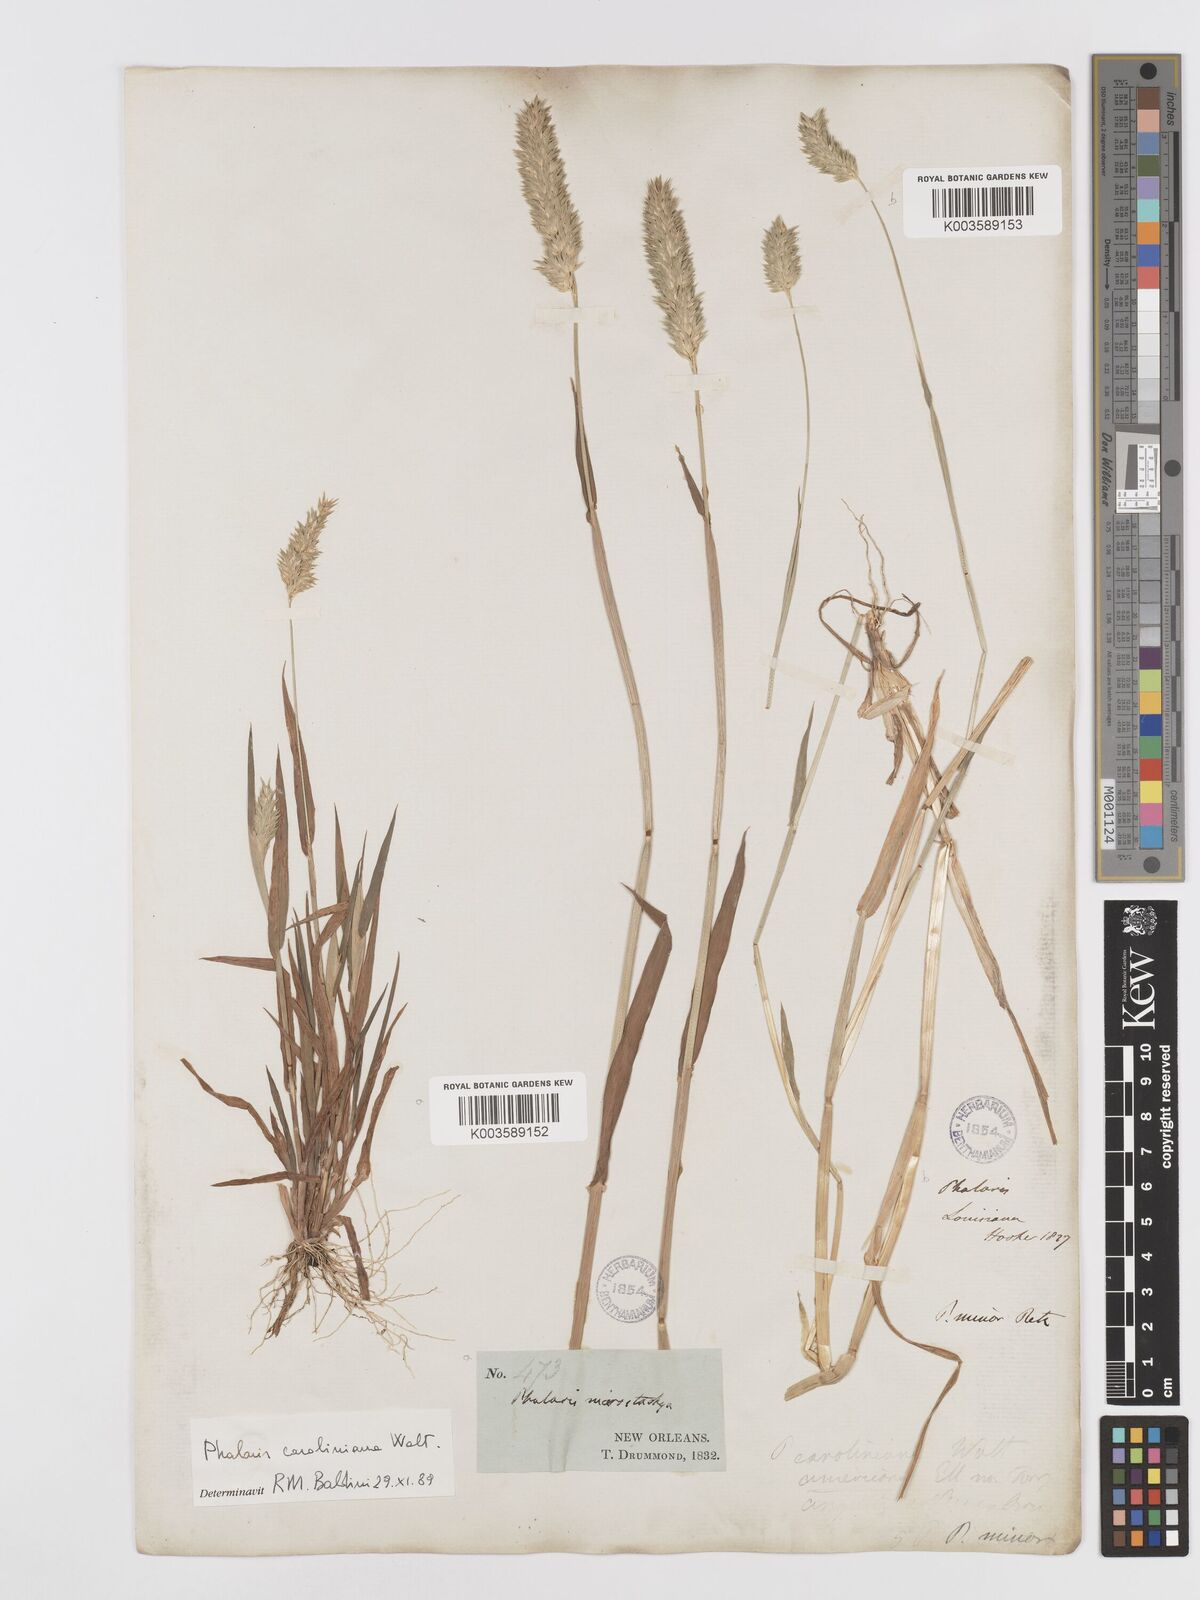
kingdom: Plantae
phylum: Tracheophyta
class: Liliopsida
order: Poales
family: Poaceae
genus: Phalaris
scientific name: Phalaris caroliniana
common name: May grass
